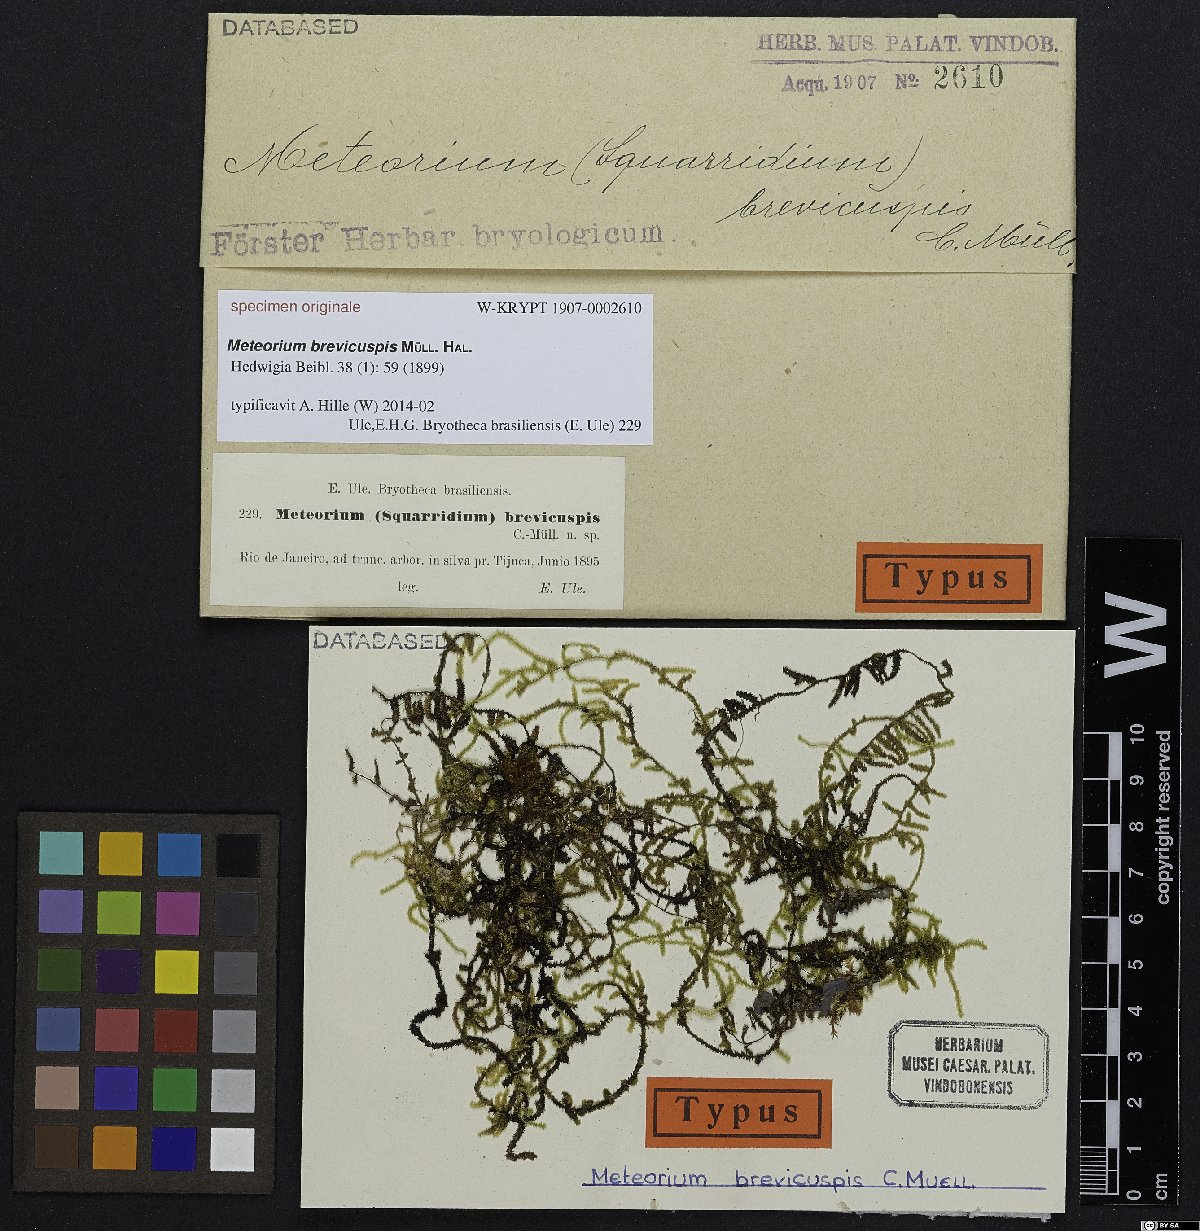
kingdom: Plantae
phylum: Bryophyta
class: Bryopsida
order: Hypnales
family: Meteoriaceae
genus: Meteorium
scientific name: Meteorium
